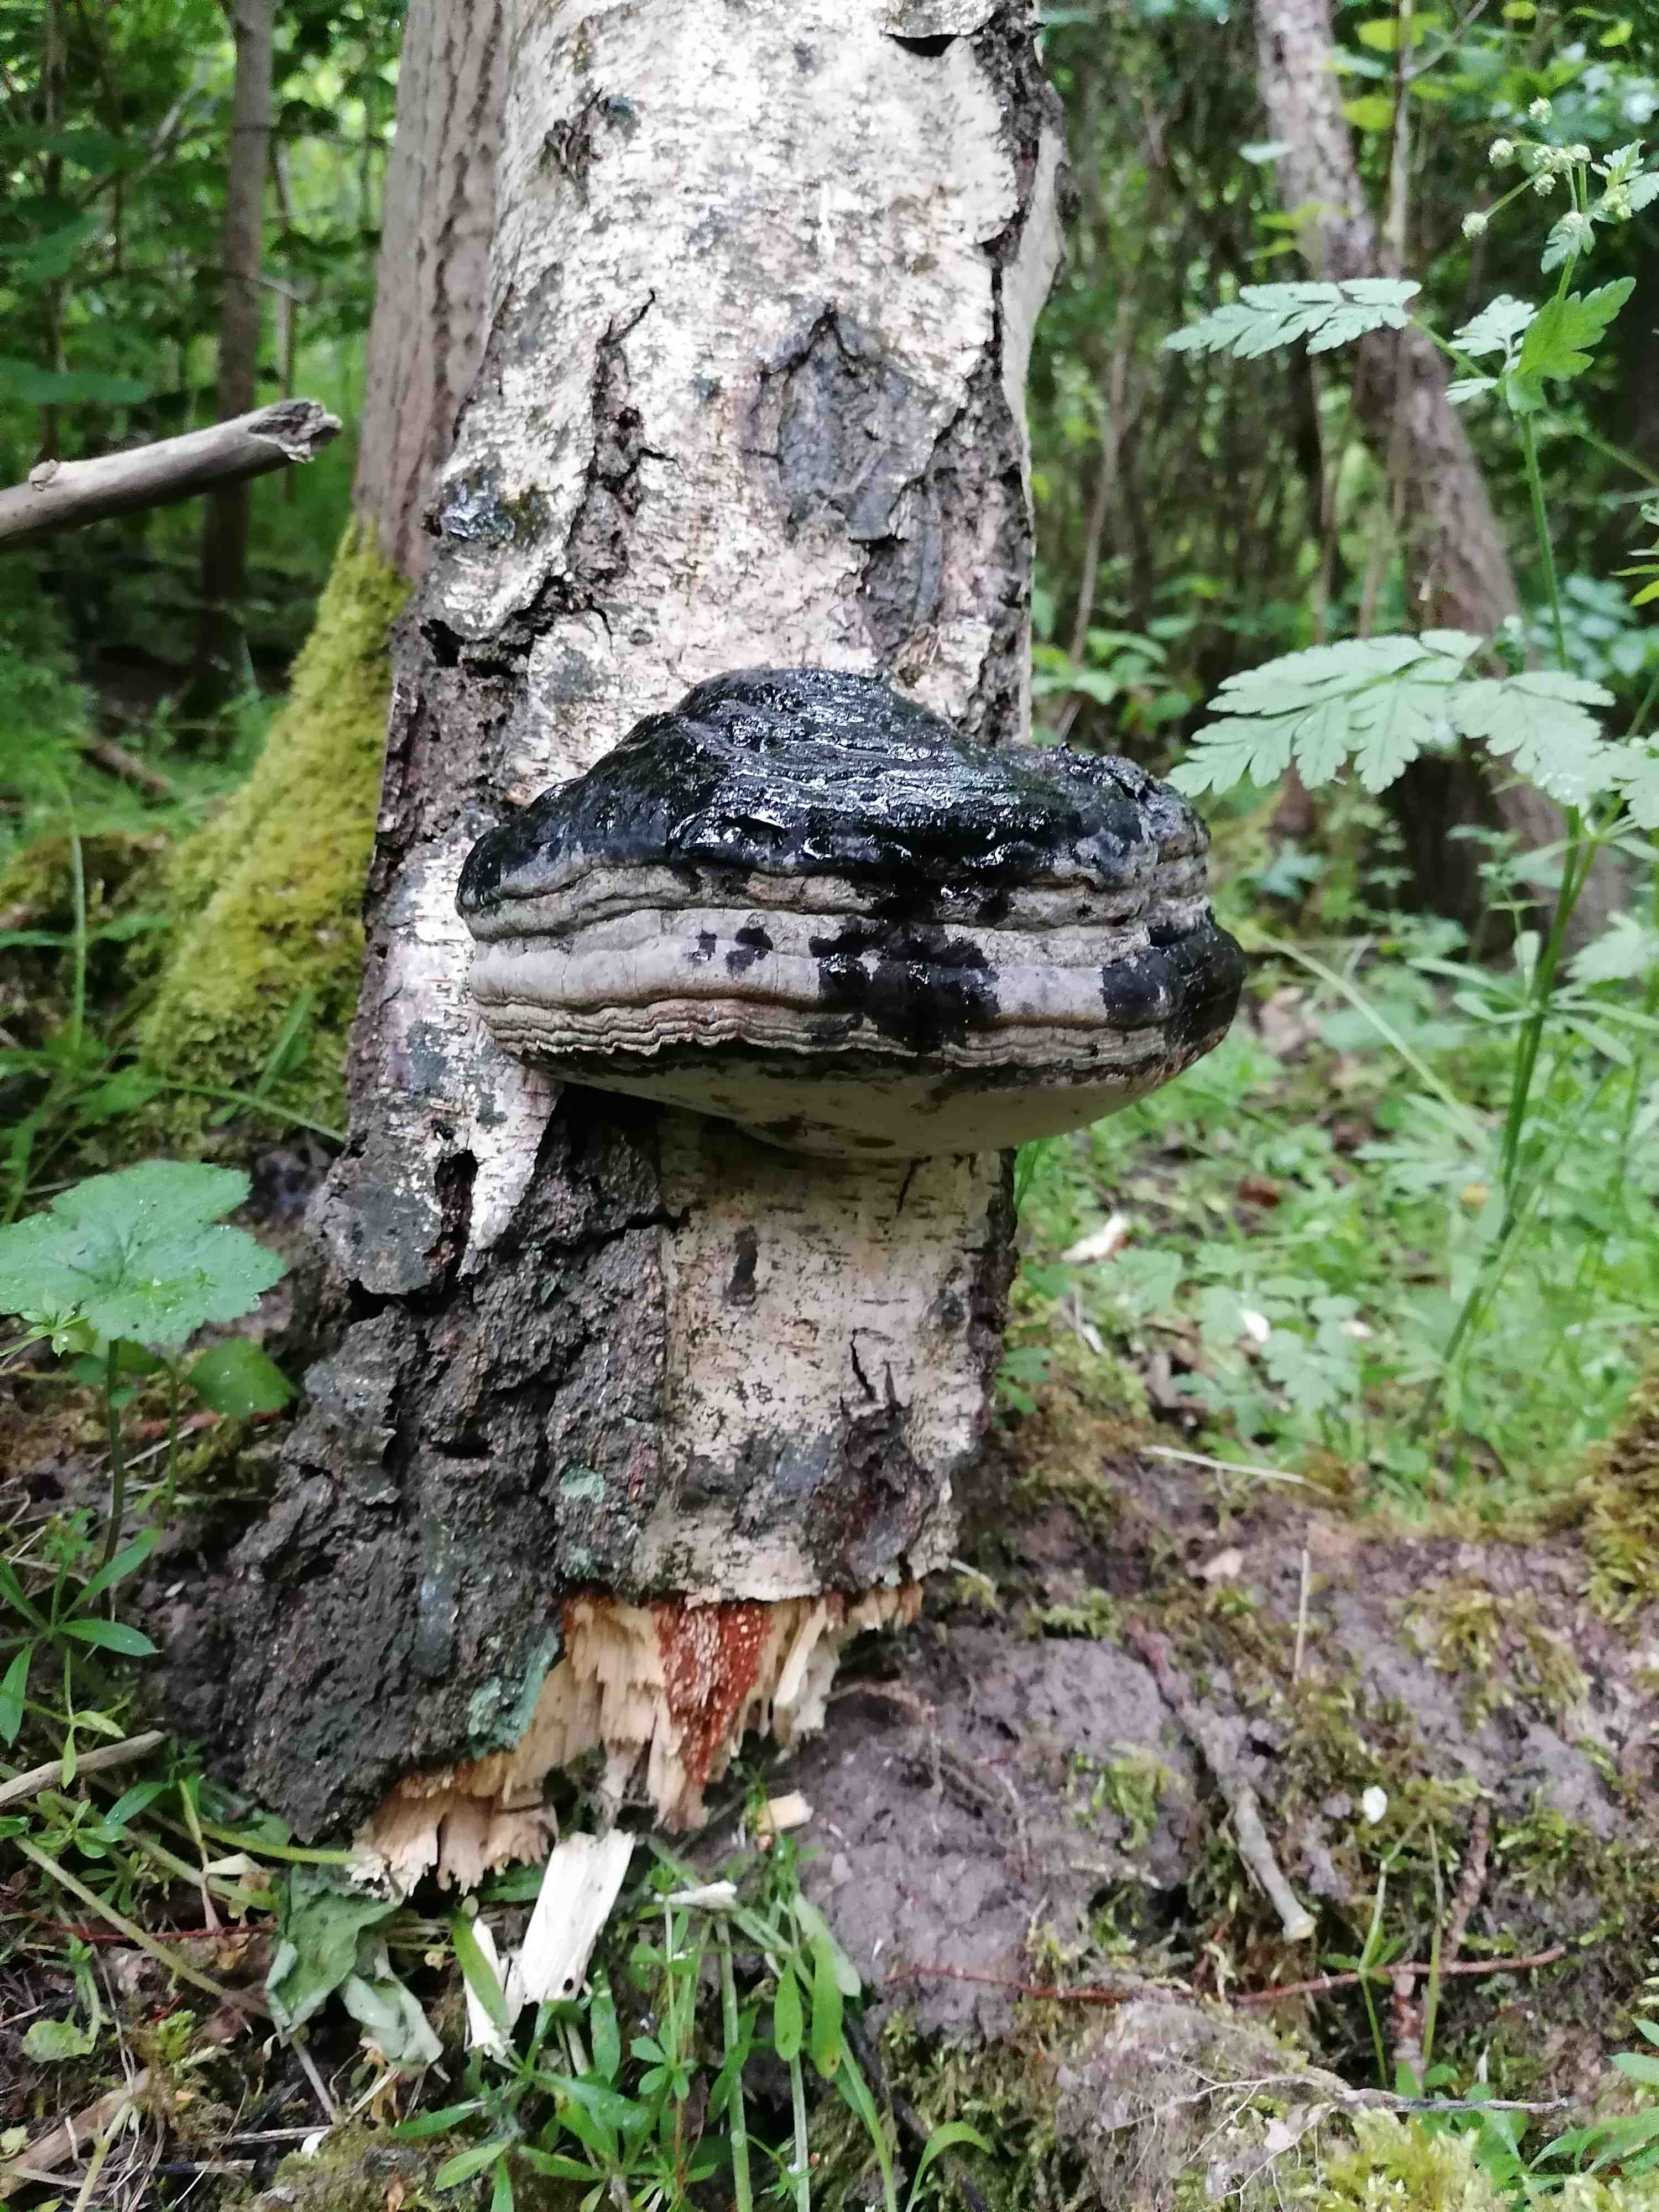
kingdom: Fungi
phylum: Basidiomycota
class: Agaricomycetes
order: Polyporales
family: Polyporaceae
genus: Fomes
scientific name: Fomes fomentarius
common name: tøndersvamp
